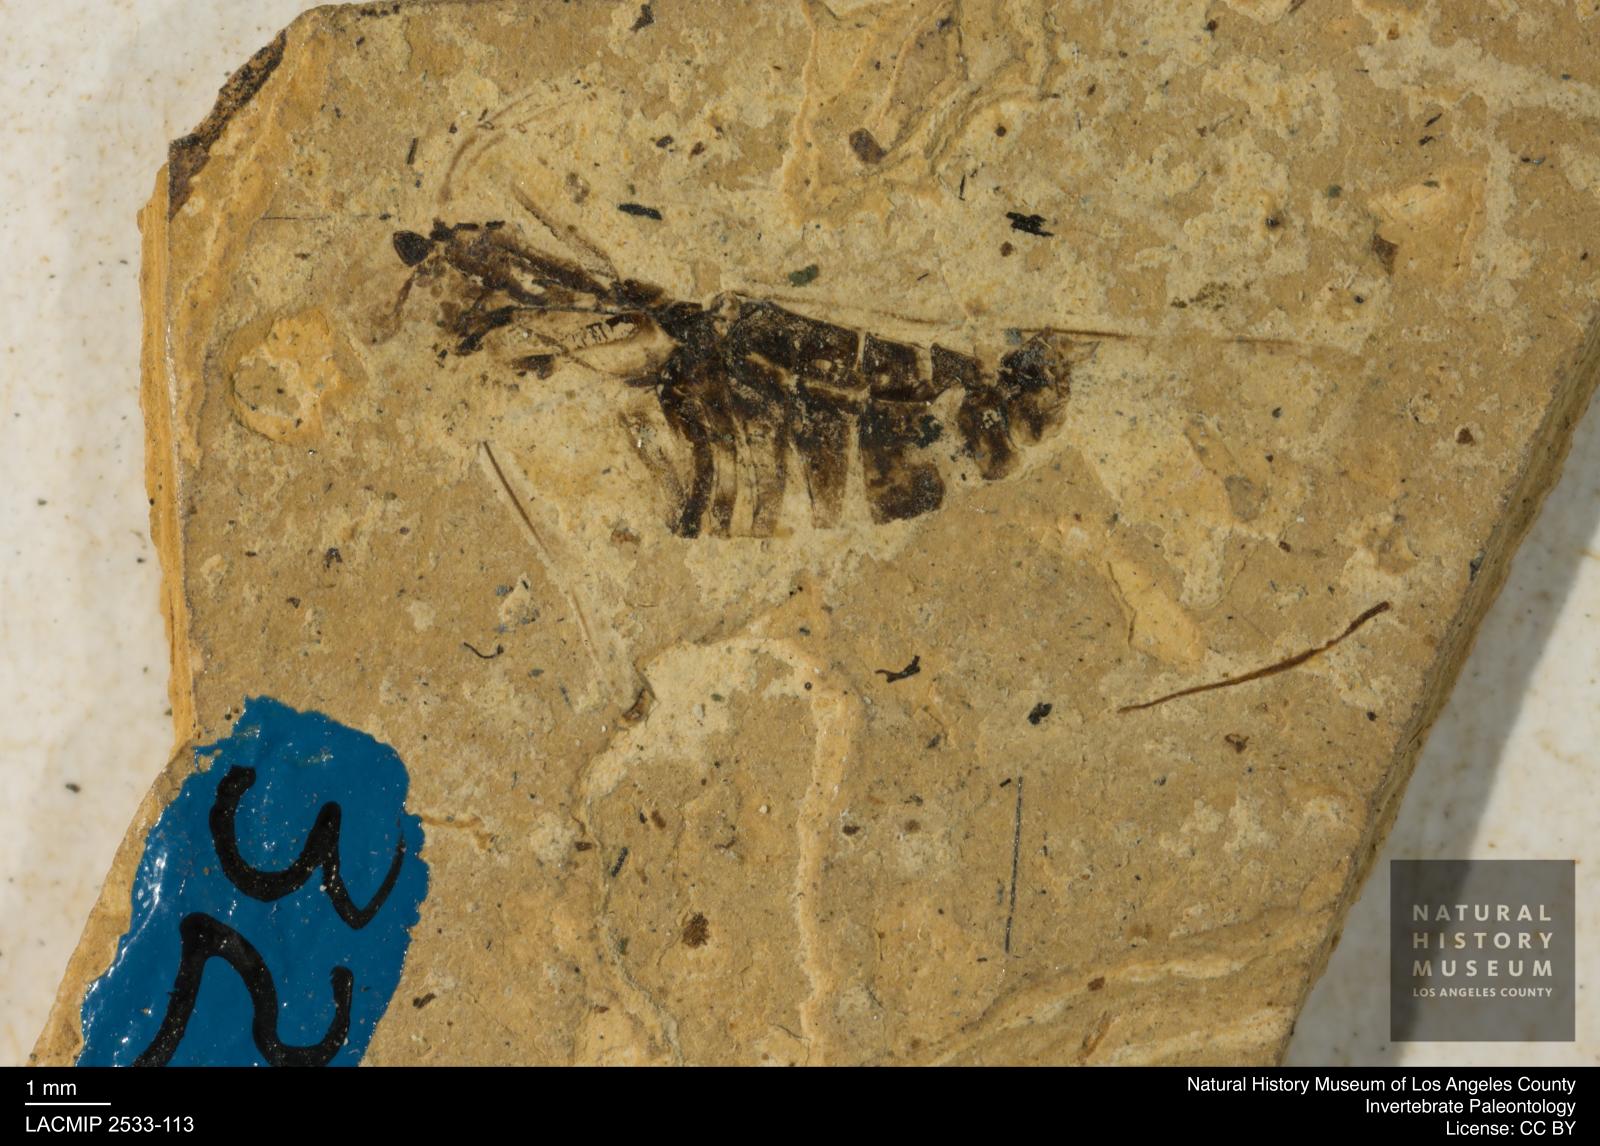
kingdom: Animalia
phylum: Arthropoda
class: Insecta
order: Hemiptera
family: Notonectidae
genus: Anisops
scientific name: Anisops Notonecta heydeni
